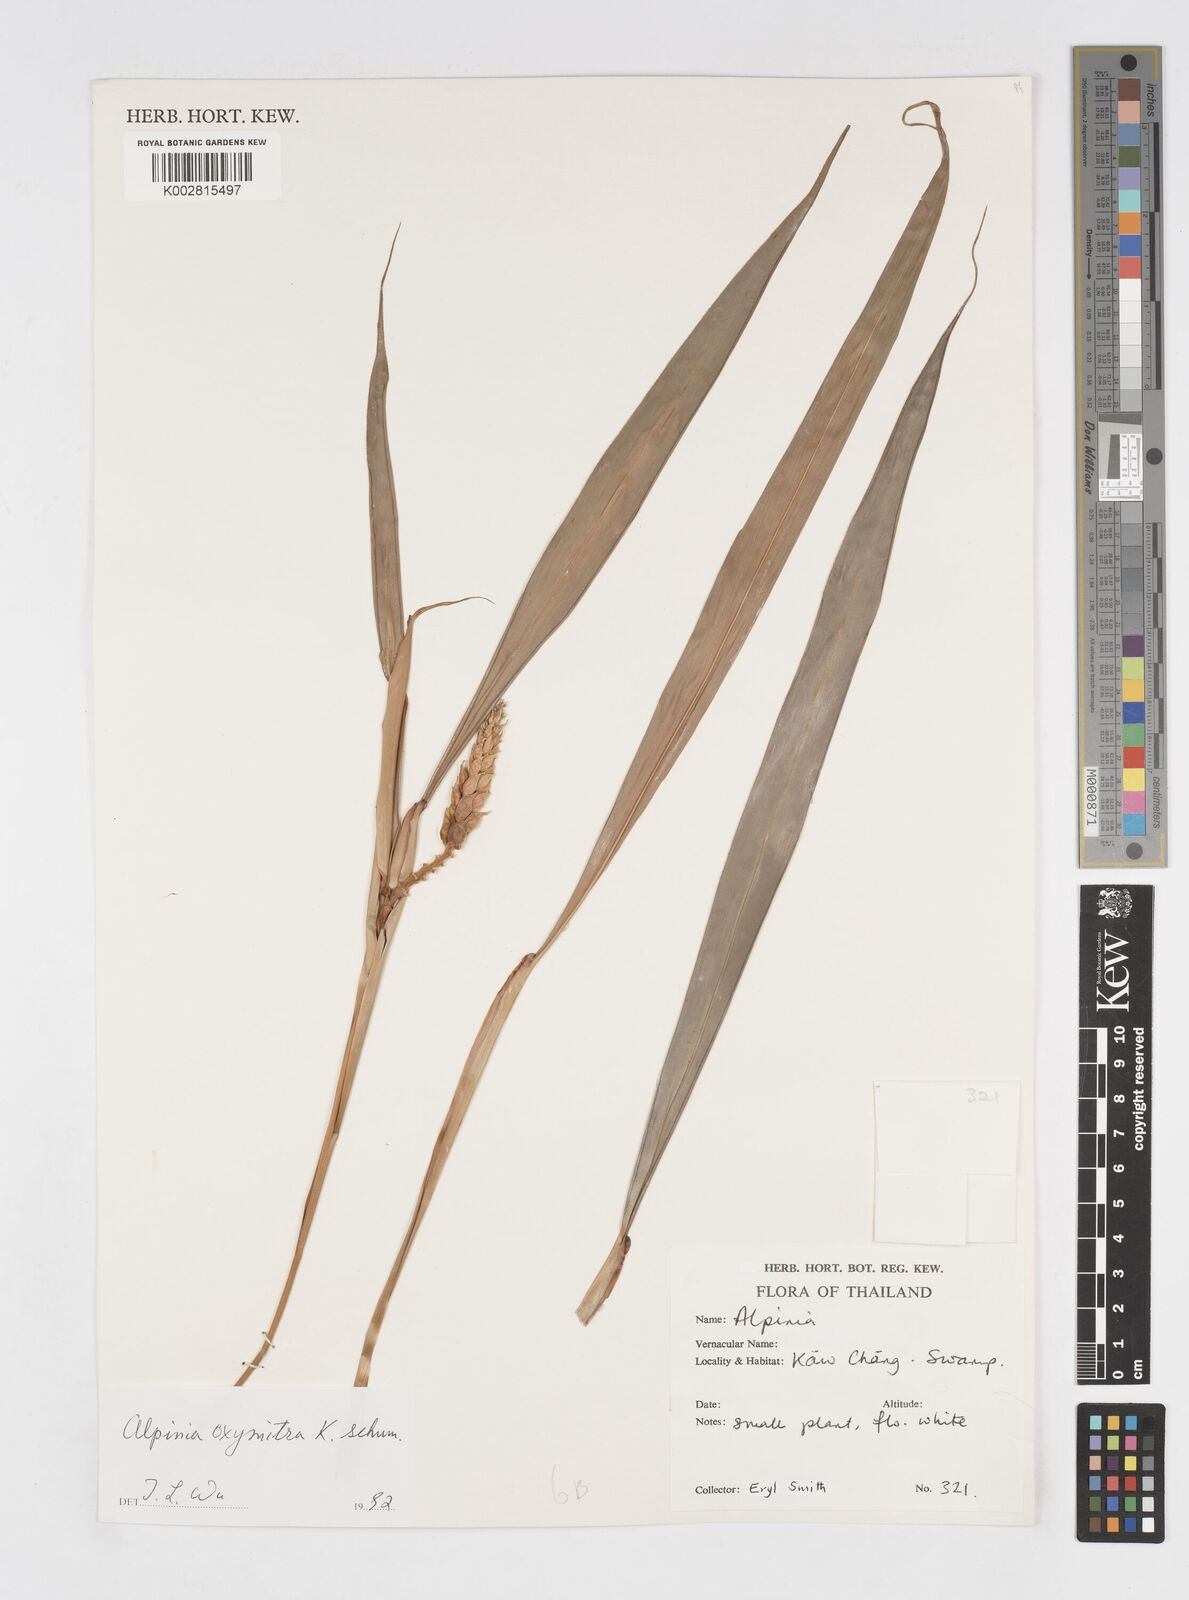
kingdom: Plantae
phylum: Tracheophyta
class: Liliopsida
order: Zingiberales
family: Zingiberaceae
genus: Alpinia
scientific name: Alpinia oxymitra
